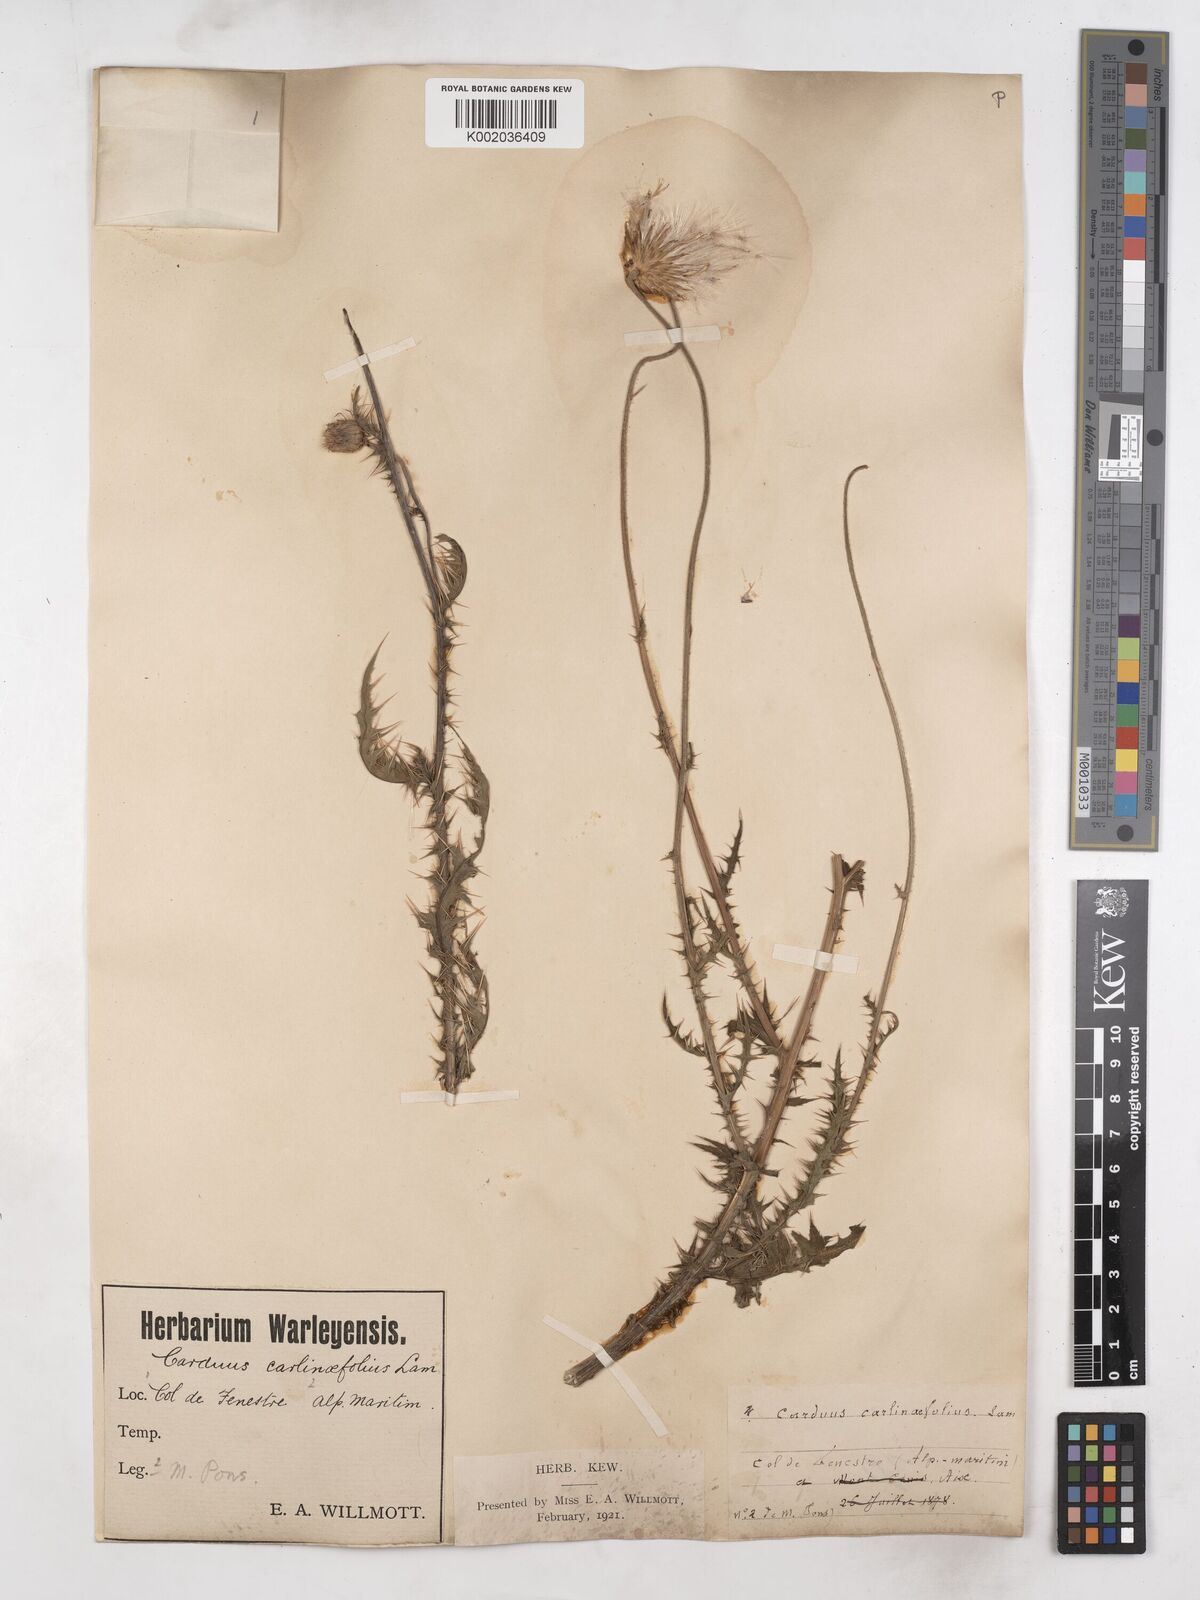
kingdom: Plantae
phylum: Tracheophyta
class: Magnoliopsida
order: Asterales
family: Asteraceae
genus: Carduus
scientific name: Carduus carlinifolius
